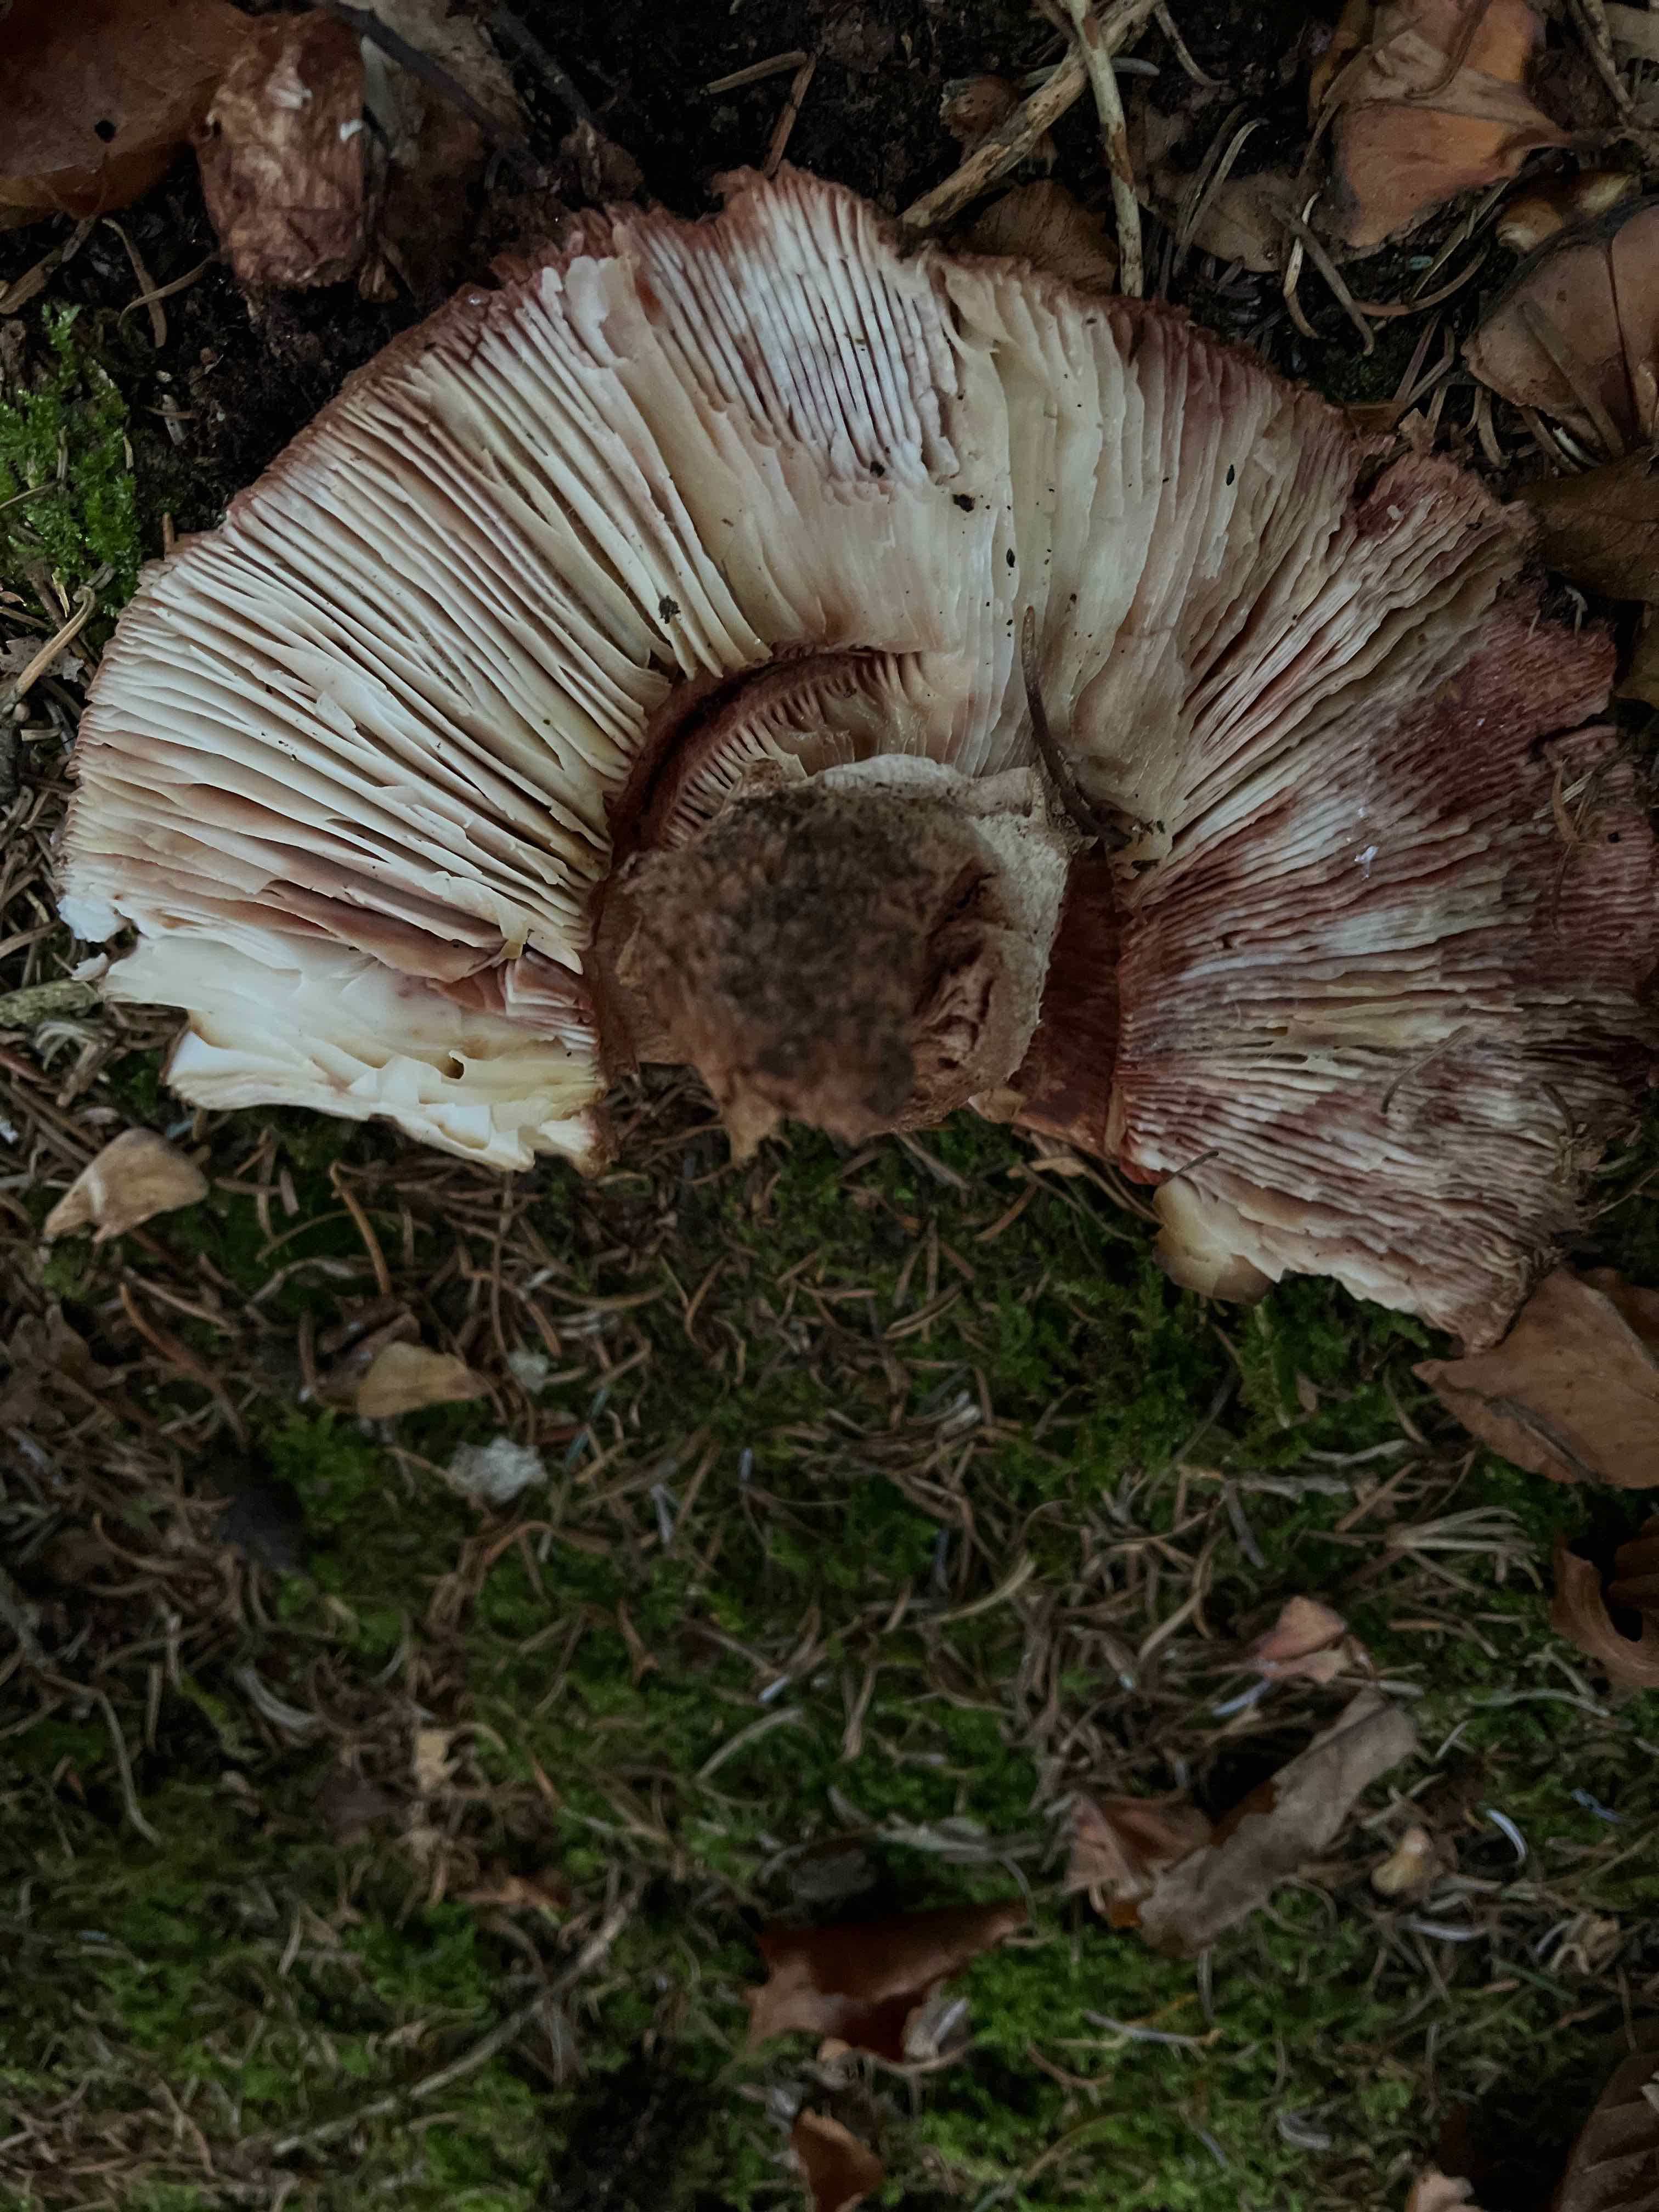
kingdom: Fungi
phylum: Basidiomycota
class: Agaricomycetes
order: Russulales
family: Russulaceae
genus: Russula
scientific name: Russula adusta
